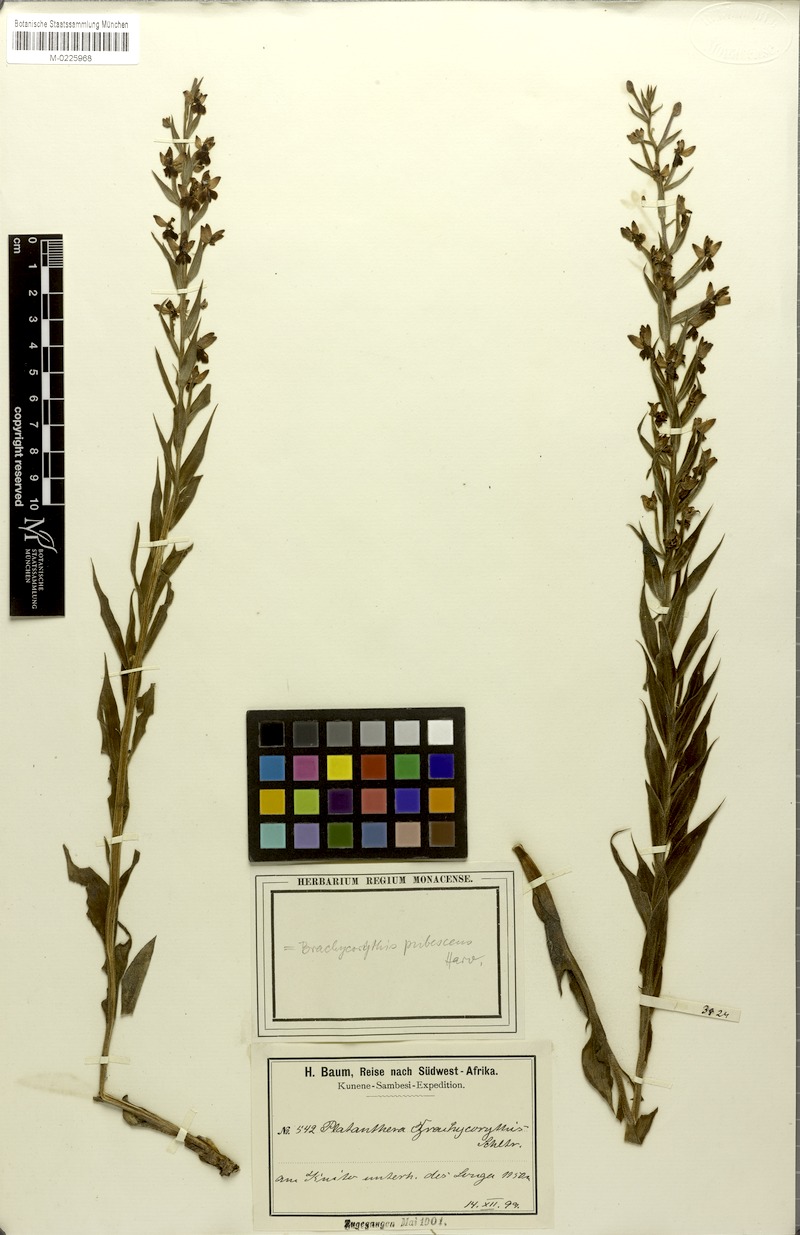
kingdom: Plantae
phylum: Tracheophyta
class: Liliopsida
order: Asparagales
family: Orchidaceae
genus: Brachycorythis
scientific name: Brachycorythis pubescens
